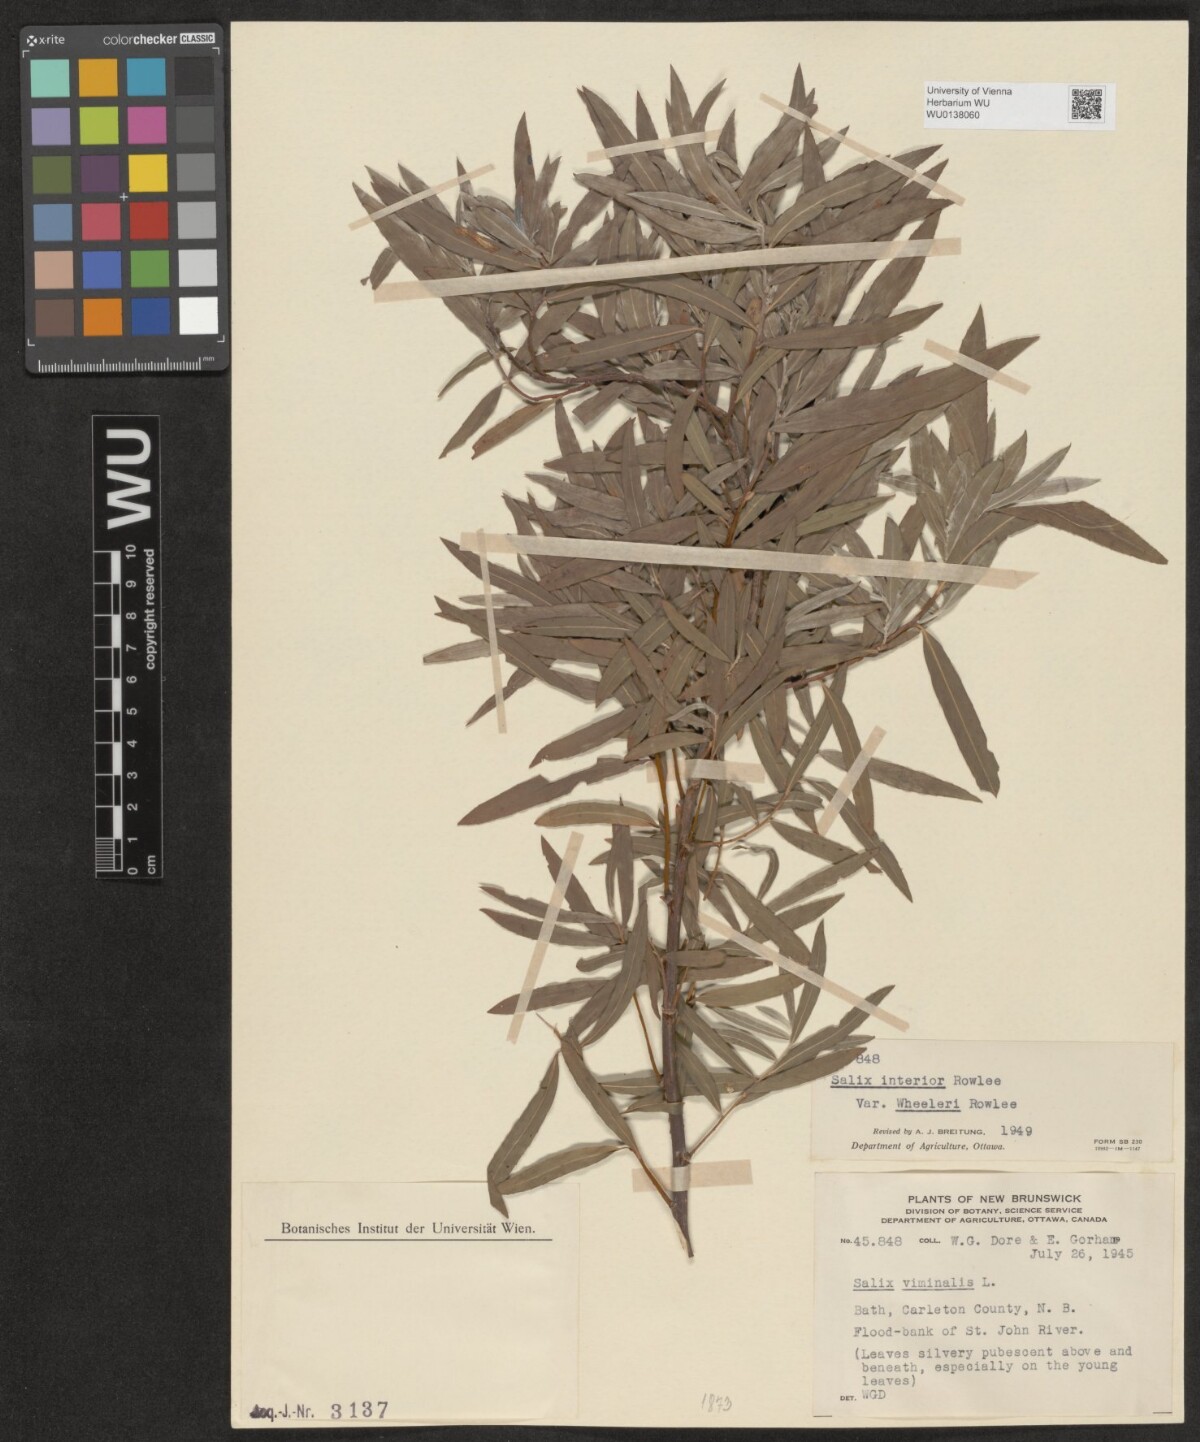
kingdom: Plantae
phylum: Tracheophyta
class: Magnoliopsida
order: Malpighiales
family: Salicaceae
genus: Salix
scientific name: Salix interior
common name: Sandbar willow
